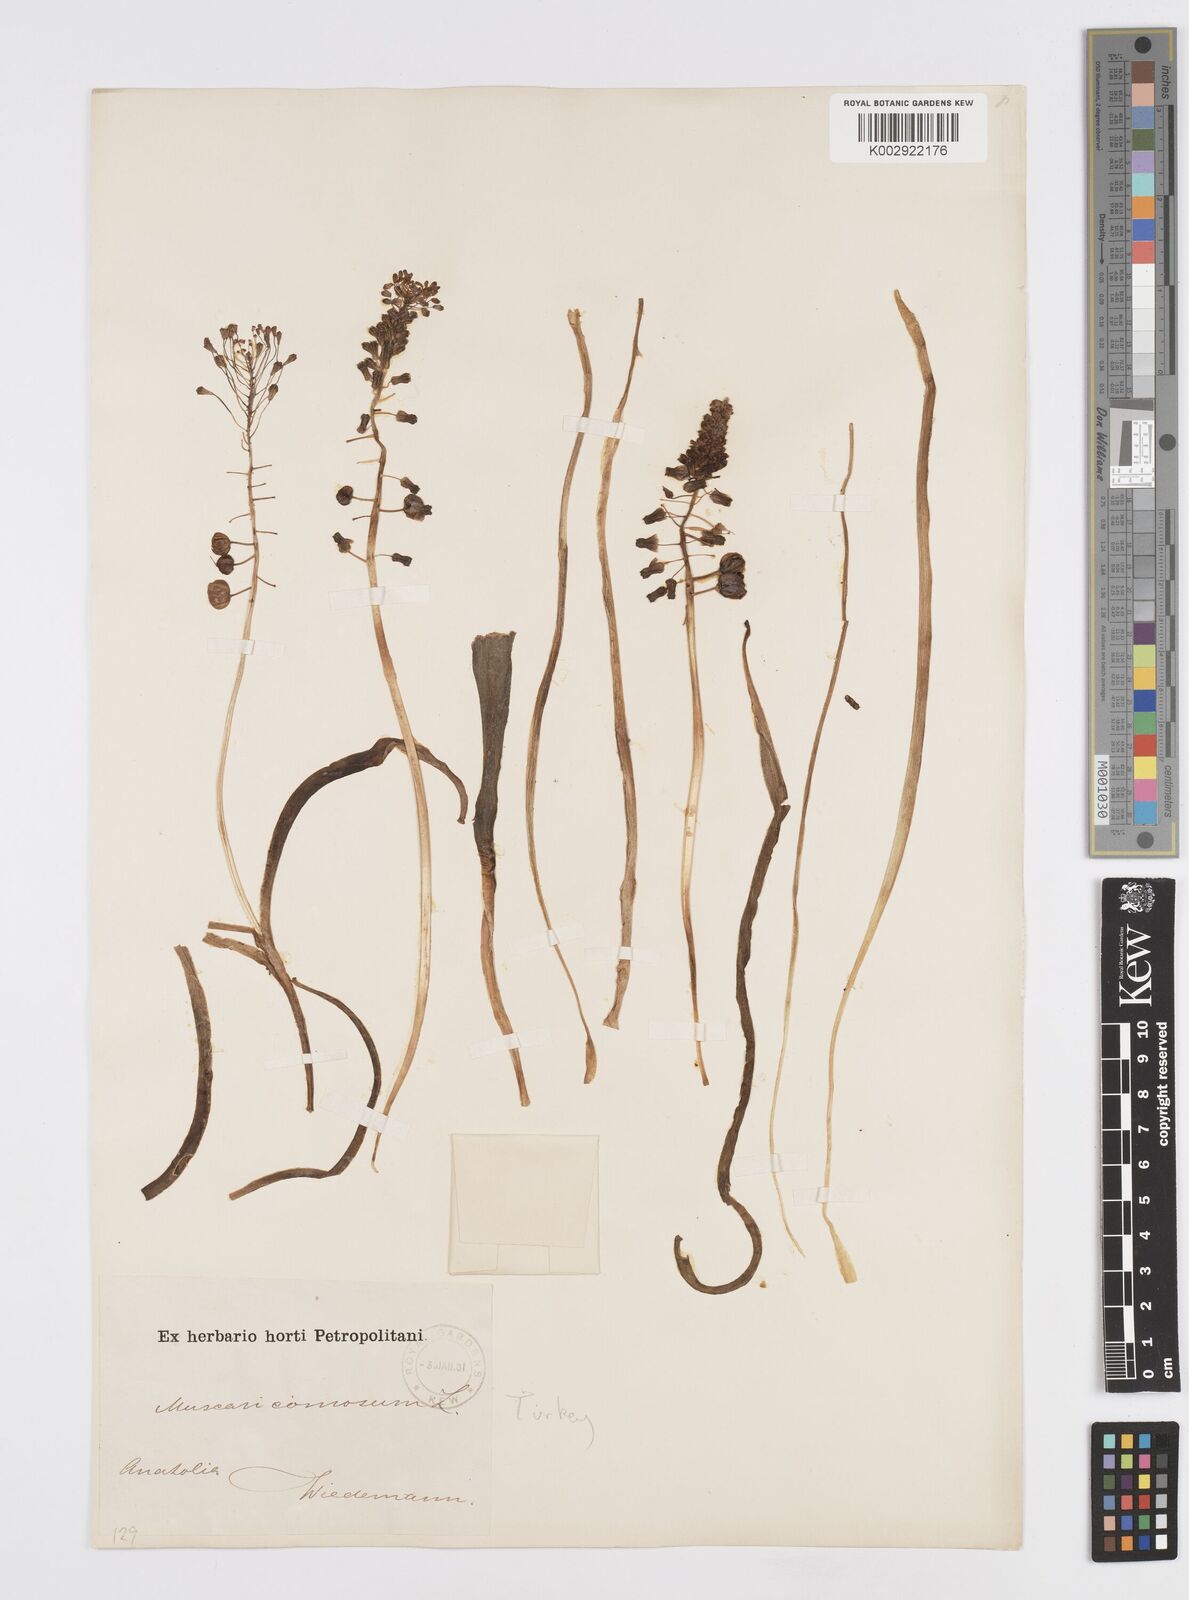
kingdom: Plantae
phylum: Tracheophyta
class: Liliopsida
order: Asparagales
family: Asparagaceae
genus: Muscari
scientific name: Muscari comosum
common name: Tassel hyacinth
